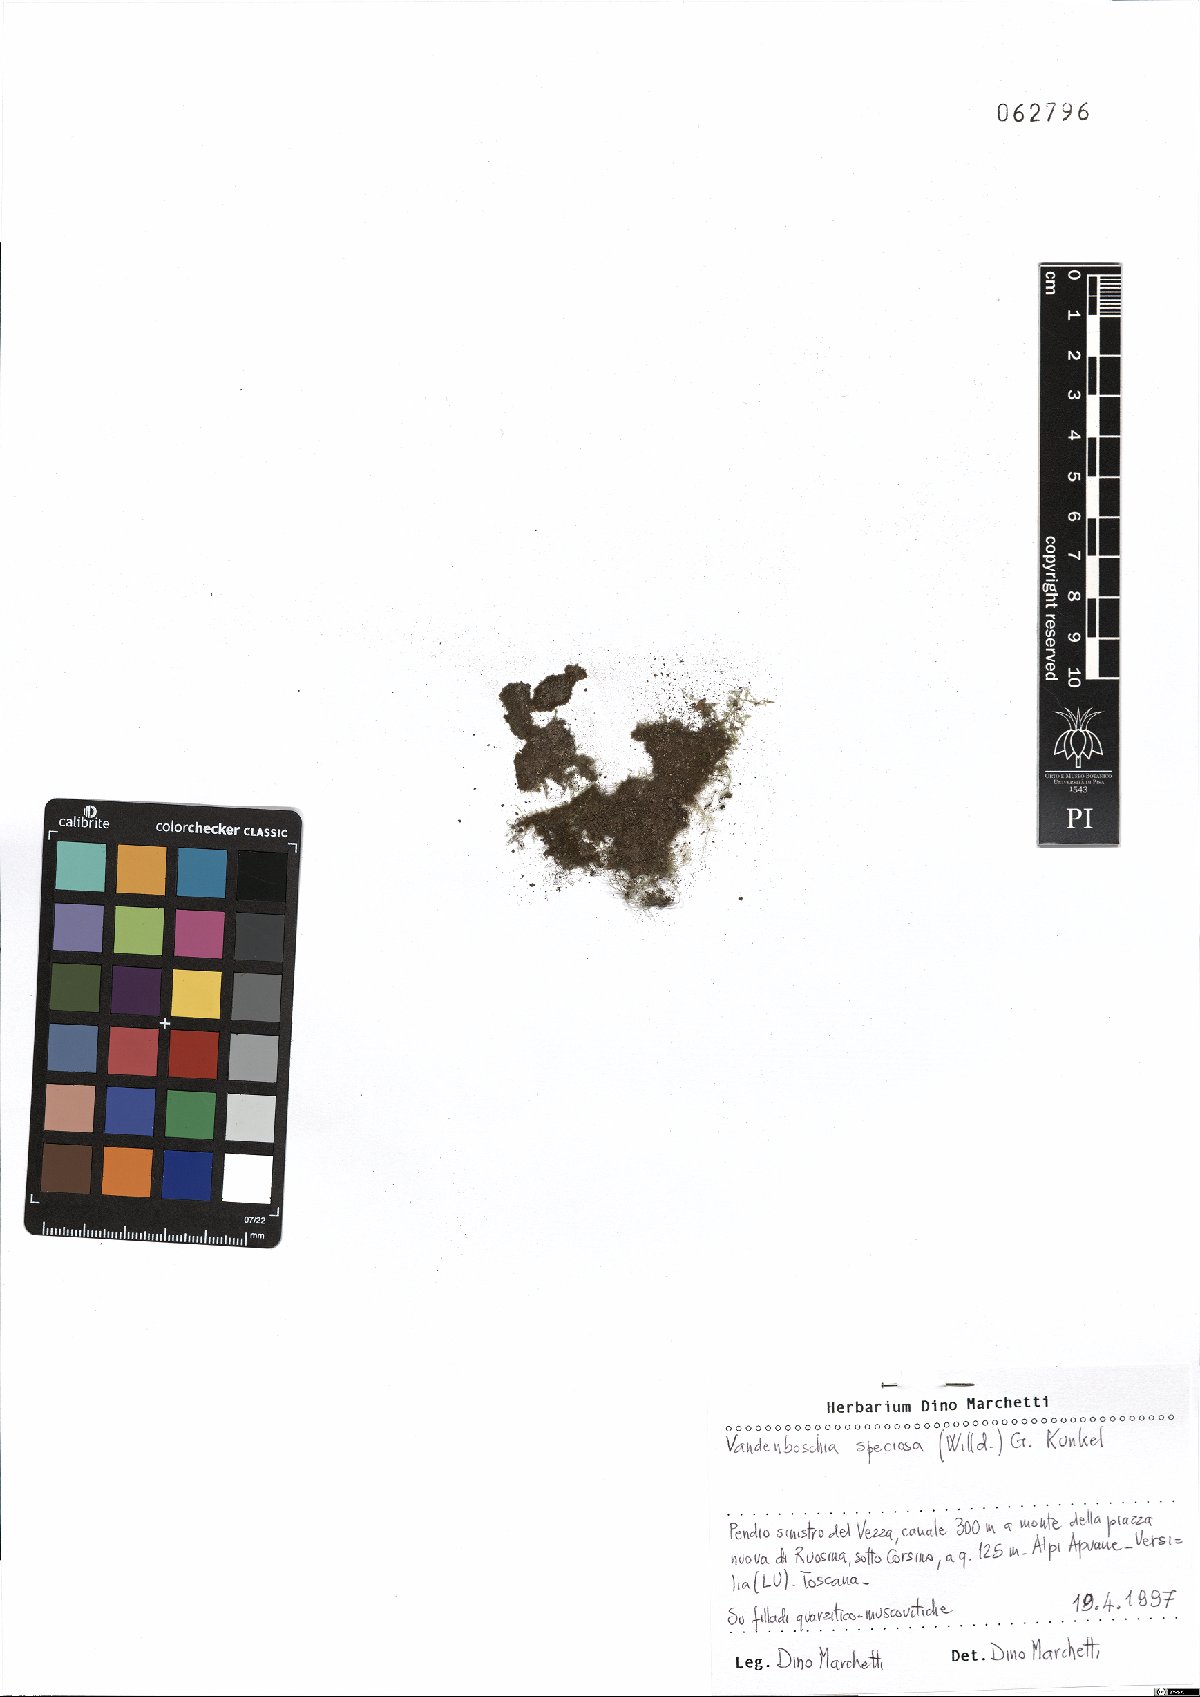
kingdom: Plantae
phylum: Tracheophyta
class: Polypodiopsida
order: Hymenophyllales
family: Hymenophyllaceae
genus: Vandenboschia
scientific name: Vandenboschia speciosa
